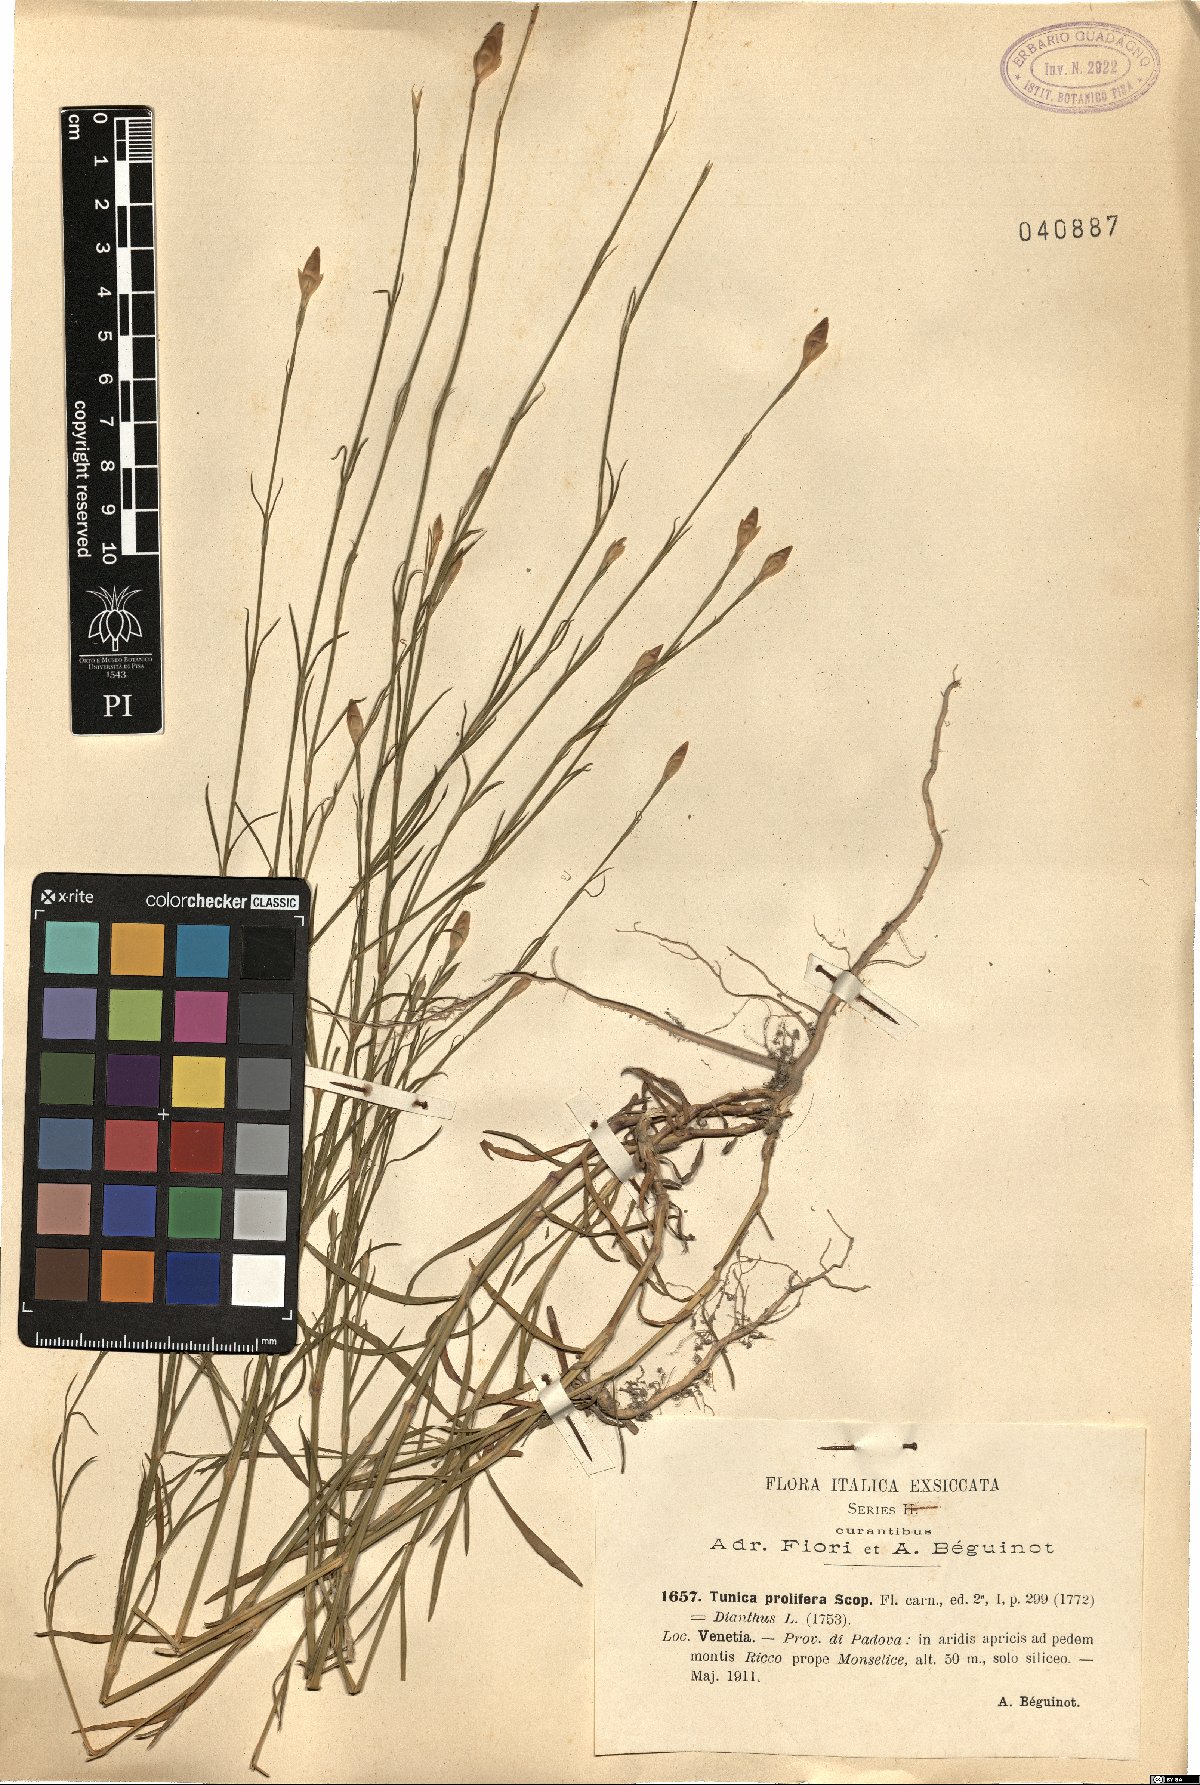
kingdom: Plantae
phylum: Tracheophyta
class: Magnoliopsida
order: Caryophyllales
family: Caryophyllaceae
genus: Petrorhagia
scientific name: Petrorhagia prolifera
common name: Proliferous pink
